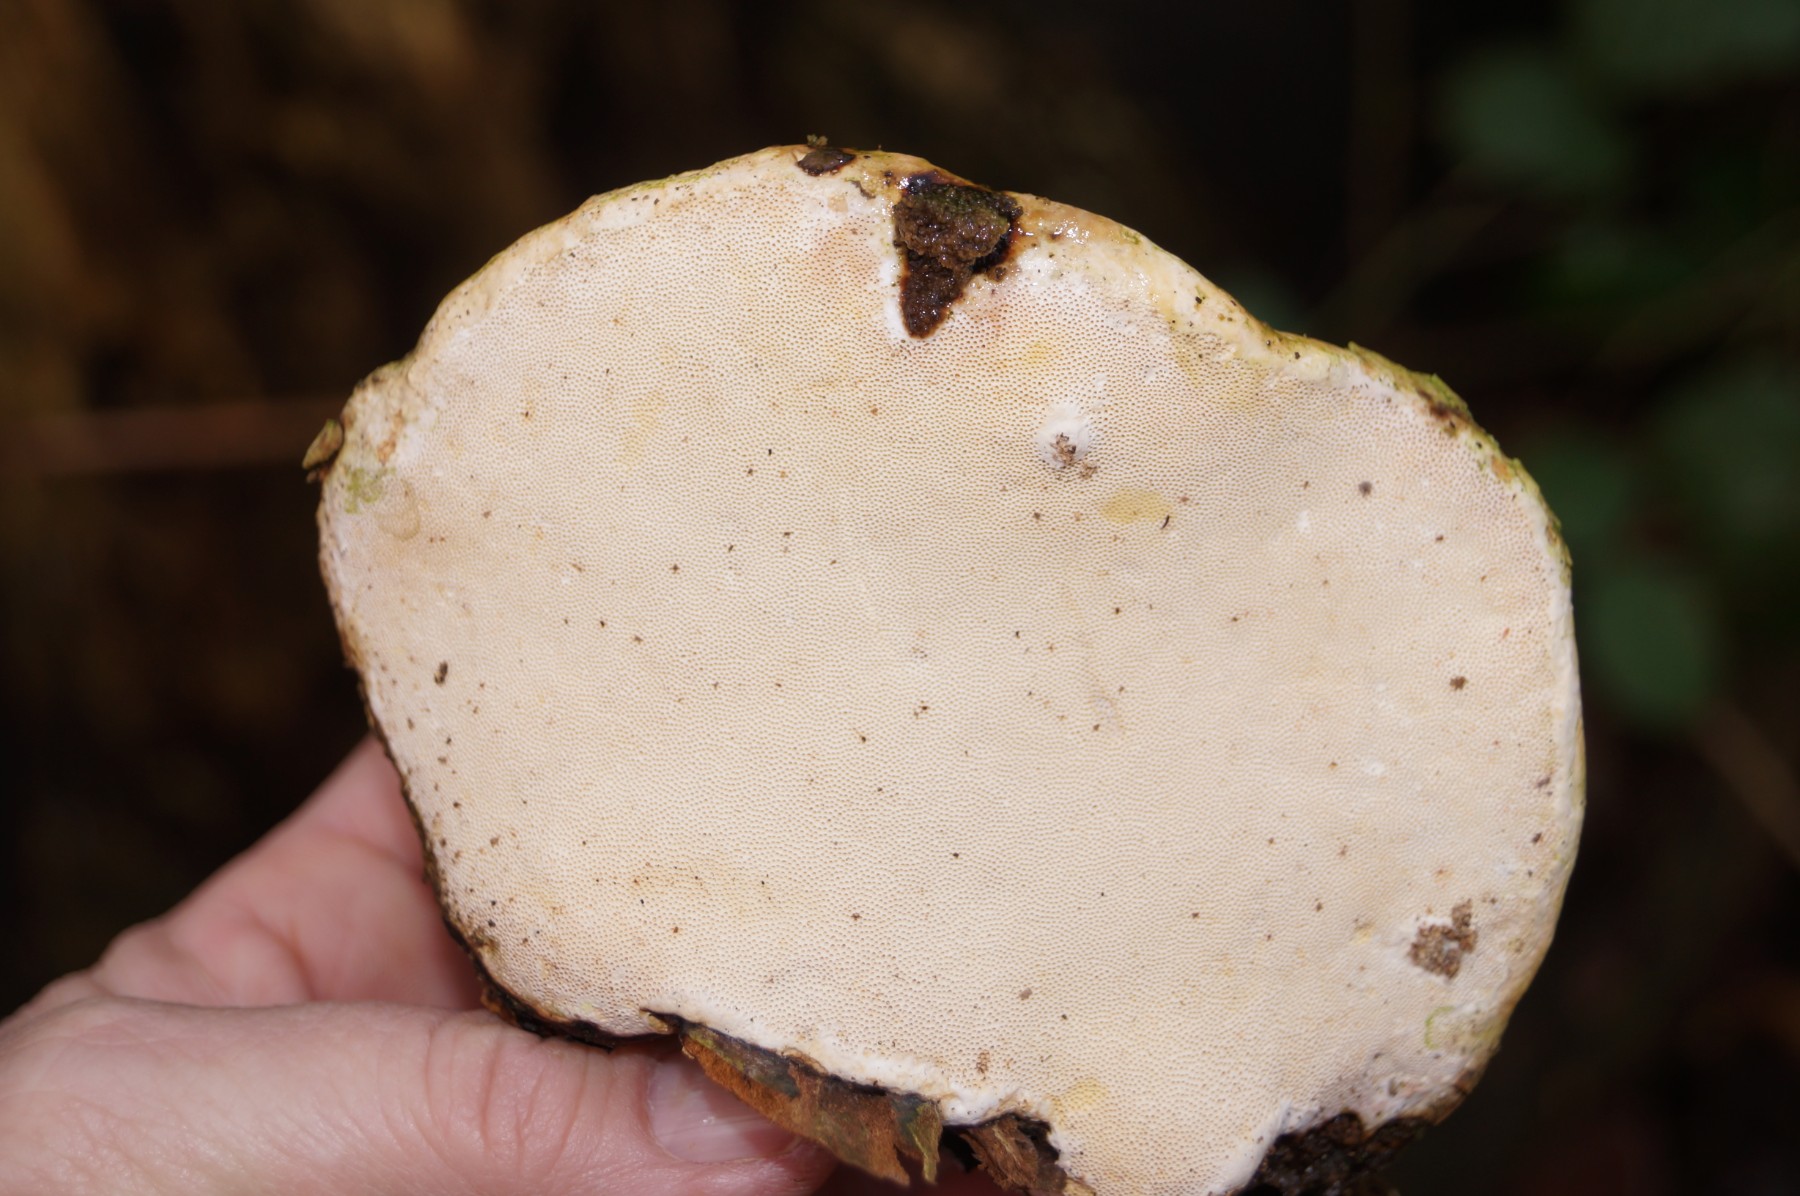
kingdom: Fungi
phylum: Basidiomycota
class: Agaricomycetes
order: Polyporales
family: Polyporaceae
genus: Fomes
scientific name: Fomes fomentarius
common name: tøndersvamp
